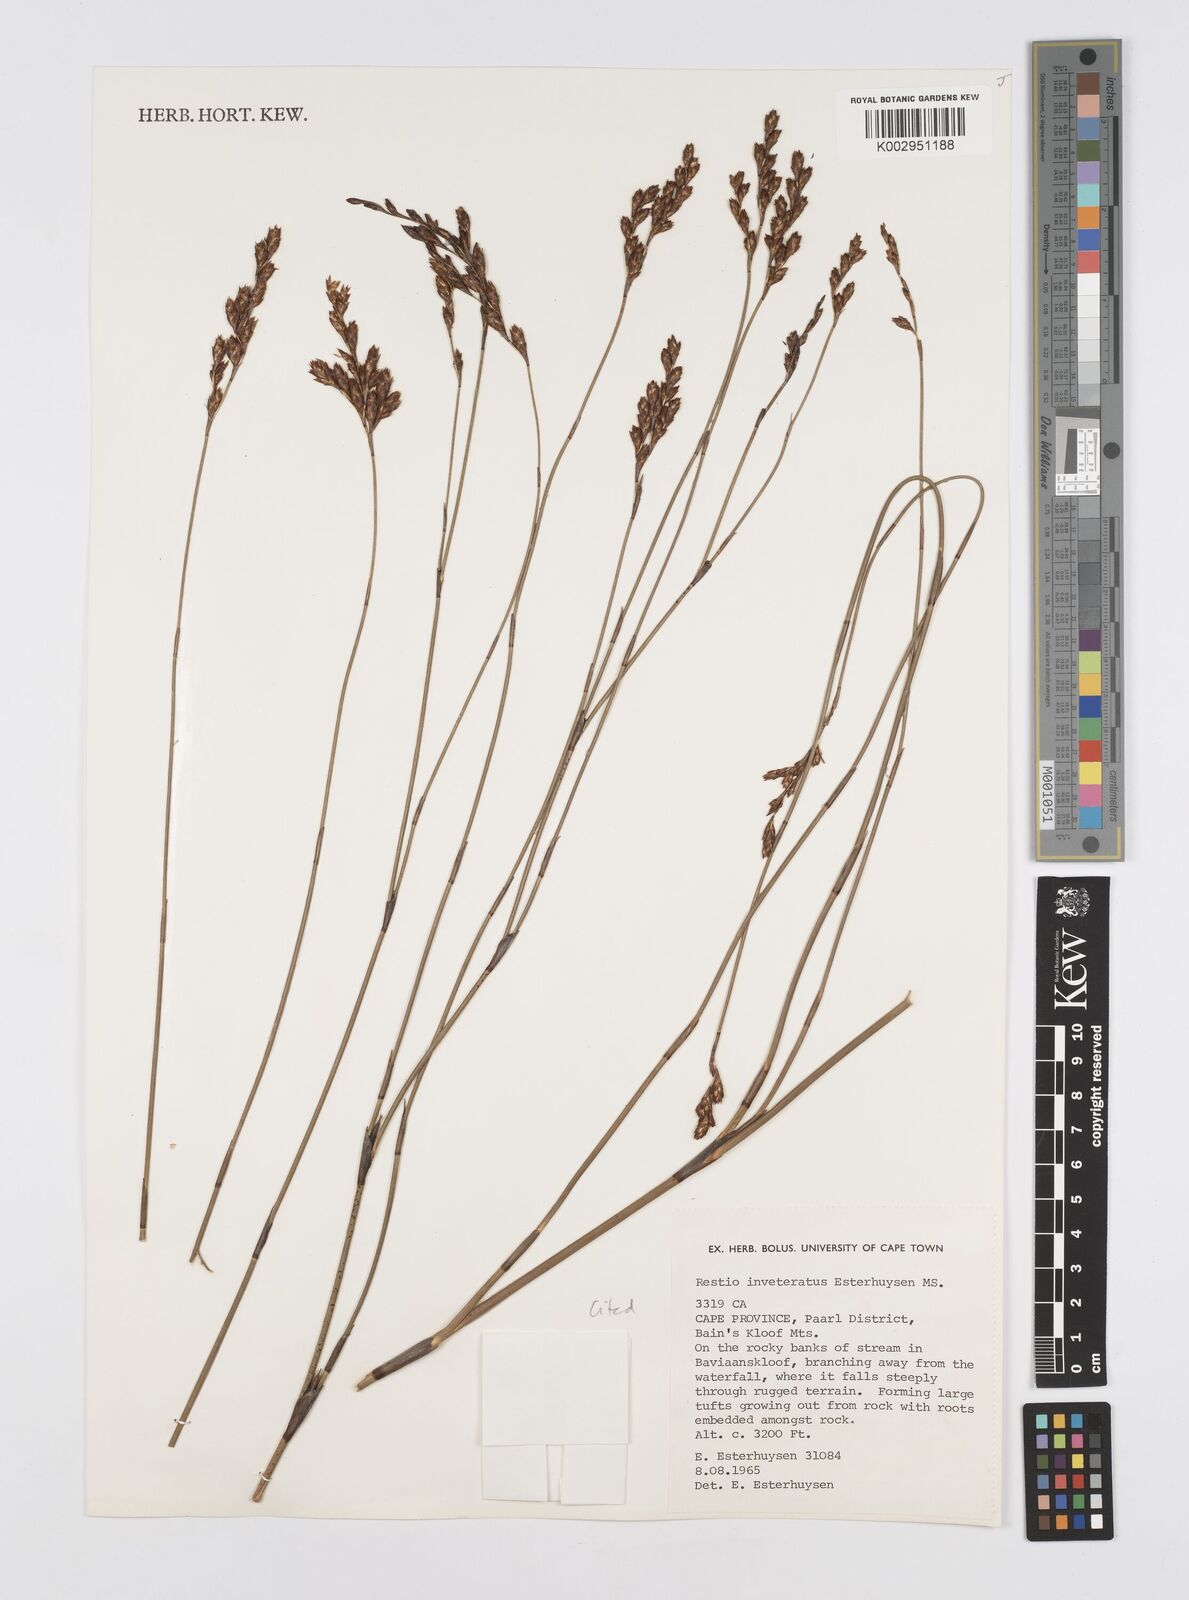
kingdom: Plantae
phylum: Tracheophyta
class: Liliopsida
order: Poales
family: Restionaceae
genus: Restio
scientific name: Restio inveteratus
